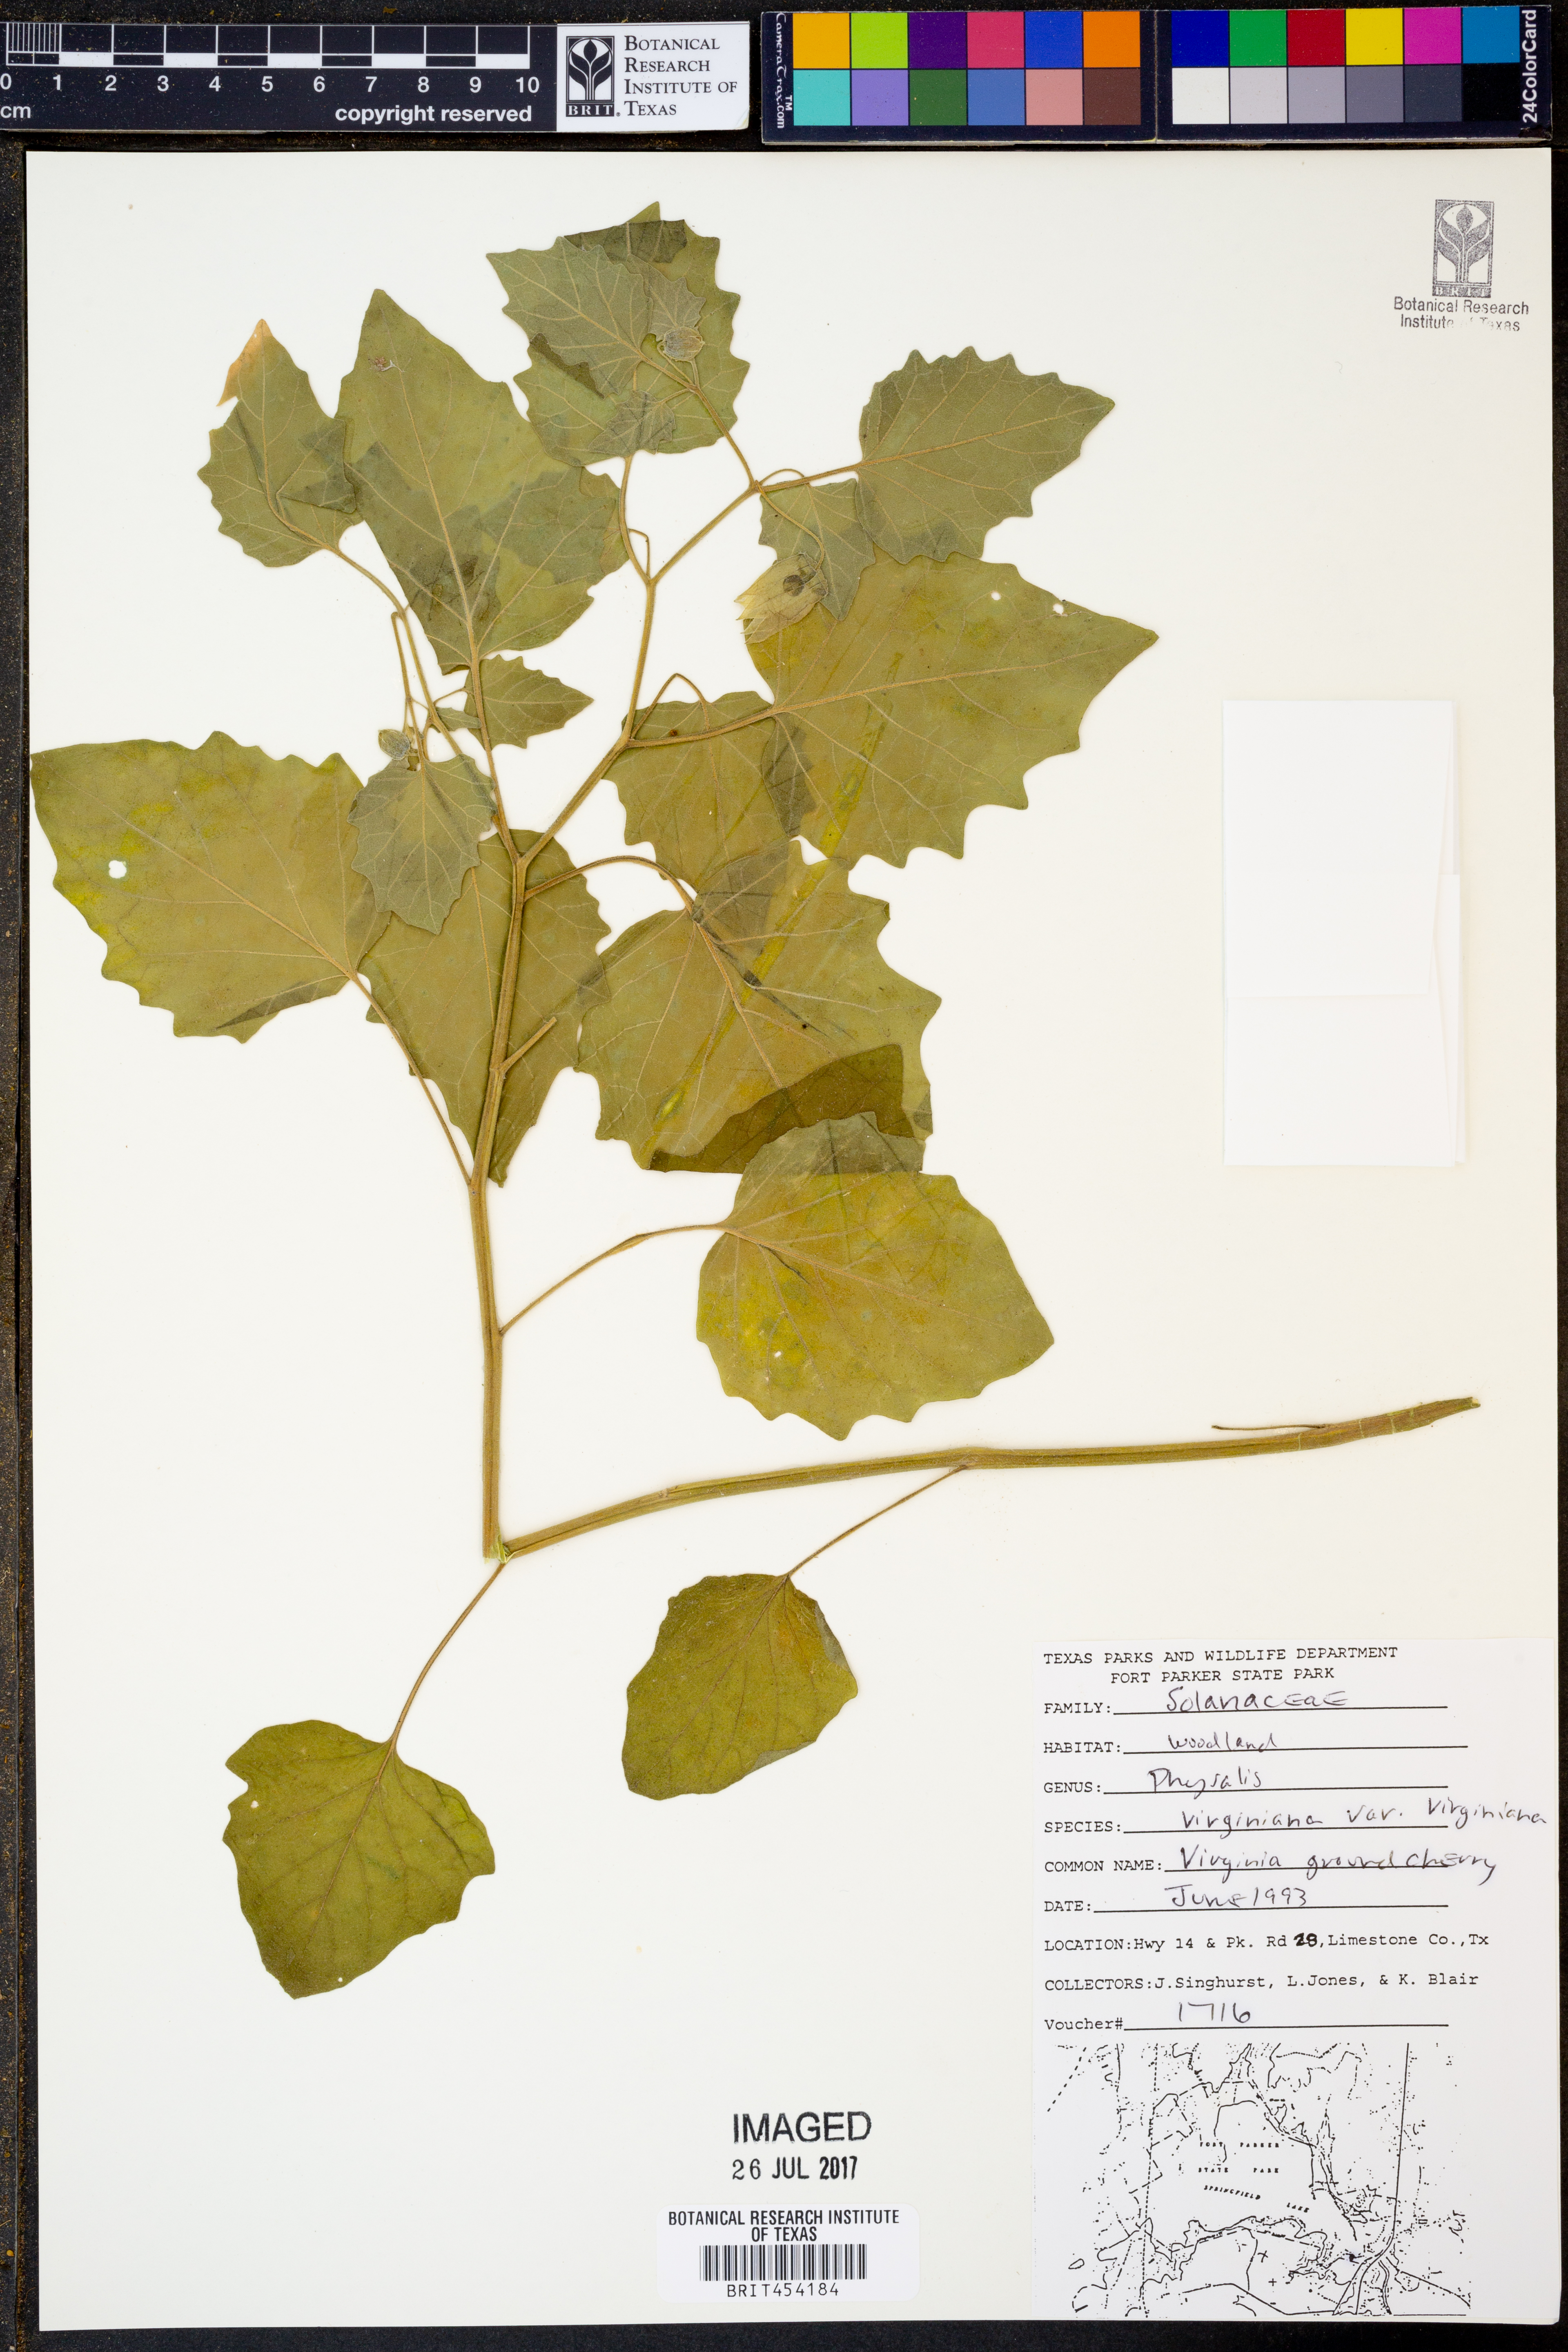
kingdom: Plantae
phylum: Tracheophyta
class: Magnoliopsida
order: Solanales
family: Solanaceae
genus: Physalis
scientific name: Physalis virginiana
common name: Virginia ground-cherry
